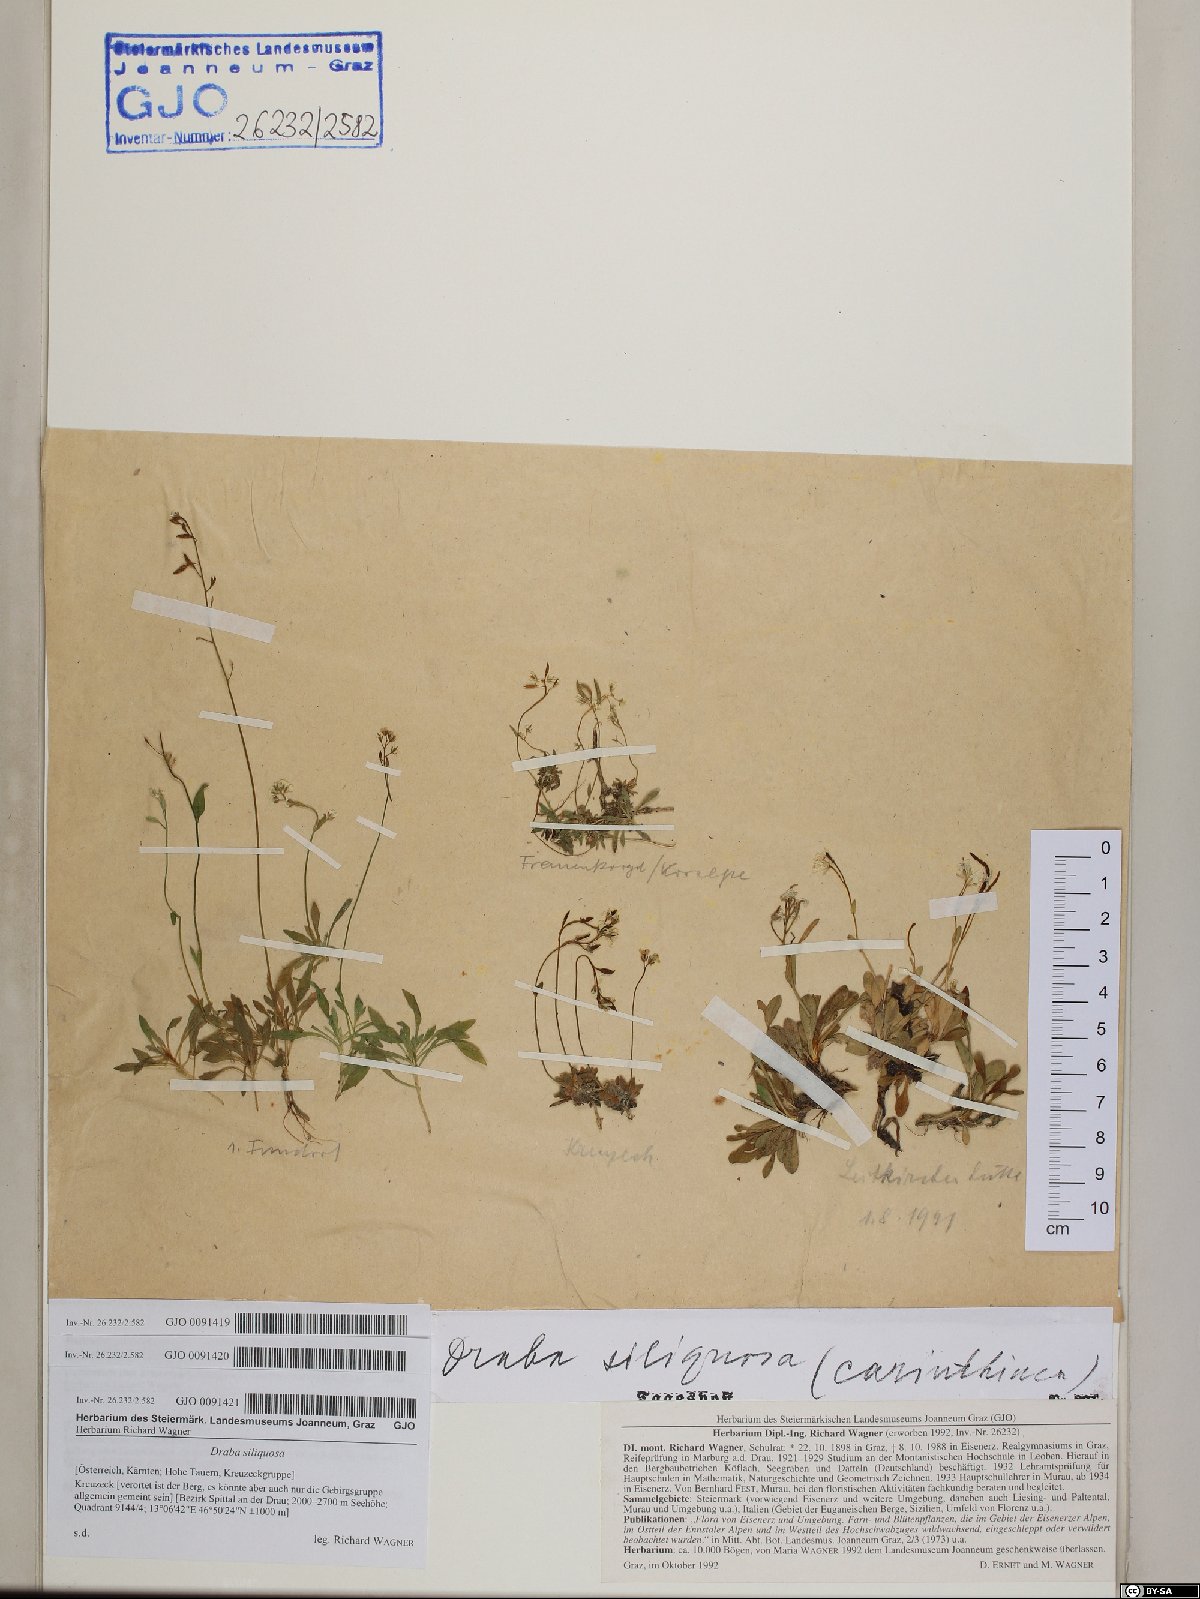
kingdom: Plantae
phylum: Tracheophyta
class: Magnoliopsida
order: Brassicales
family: Brassicaceae
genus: Draba
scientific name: Draba siliquosa
